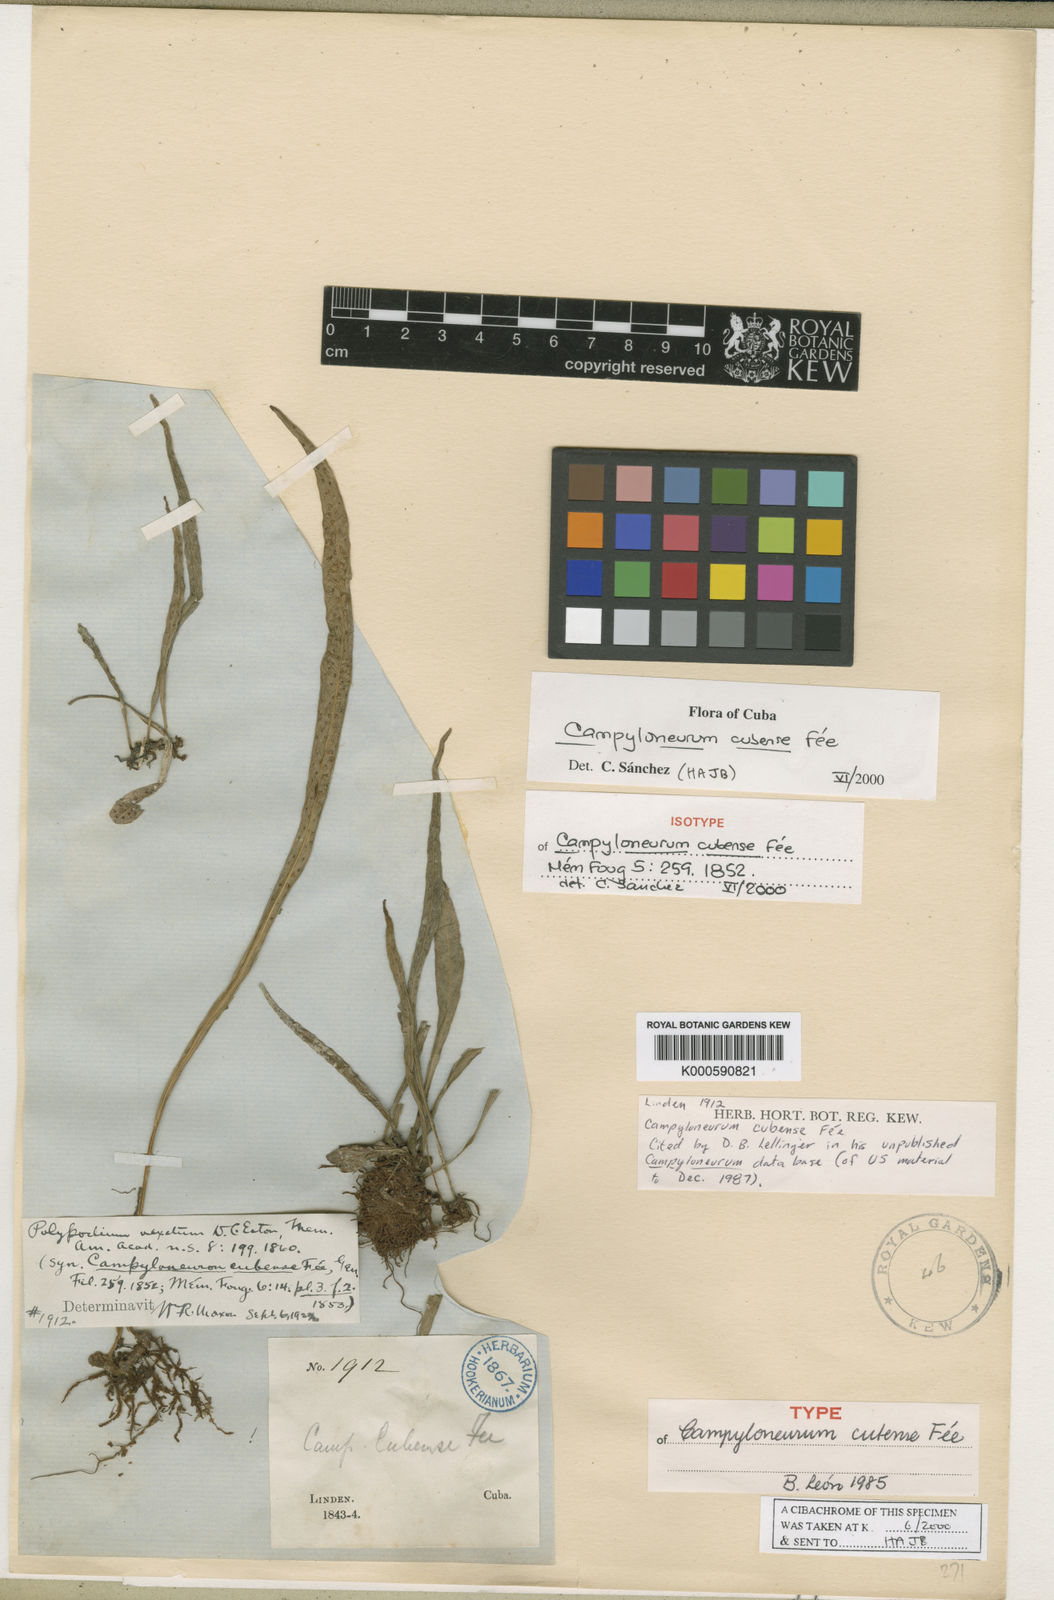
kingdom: Plantae
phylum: Tracheophyta
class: Polypodiopsida
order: Polypodiales
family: Polypodiaceae
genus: Campyloneurum
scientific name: Campyloneurum
